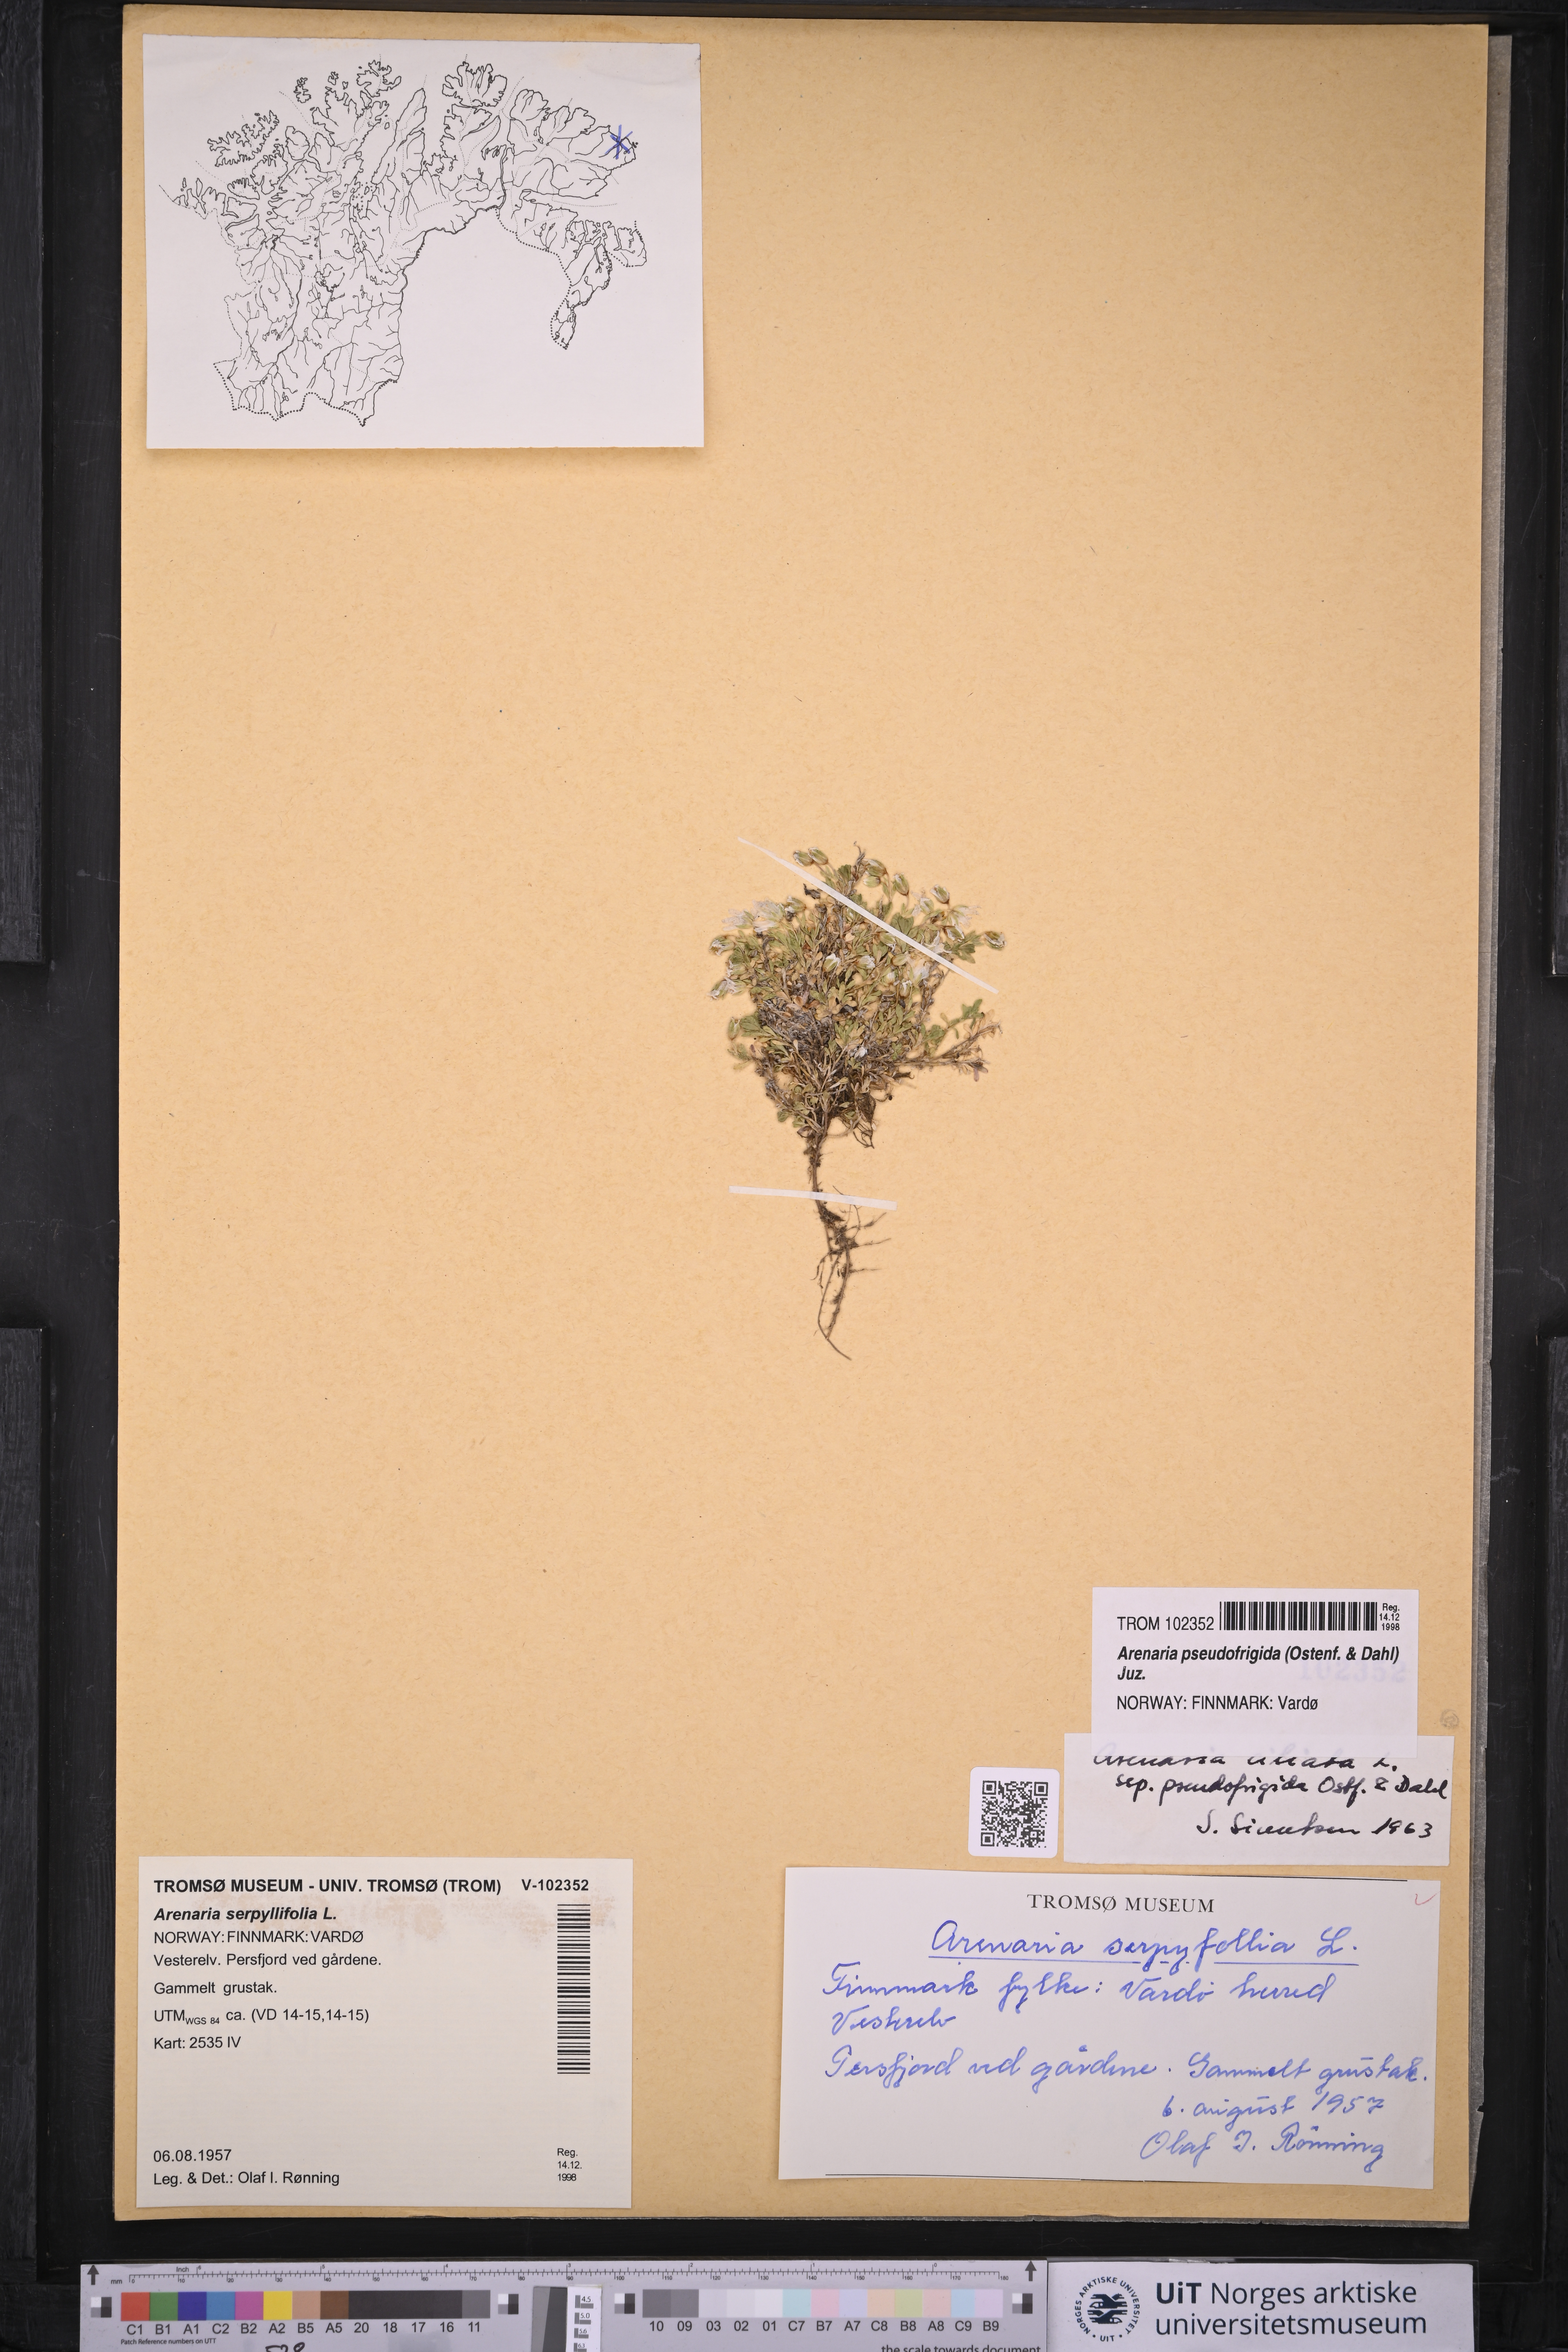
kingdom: Plantae
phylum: Tracheophyta
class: Magnoliopsida
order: Caryophyllales
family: Caryophyllaceae
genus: Arenaria
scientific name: Arenaria pseudofrigida
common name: Tundra sandwort
